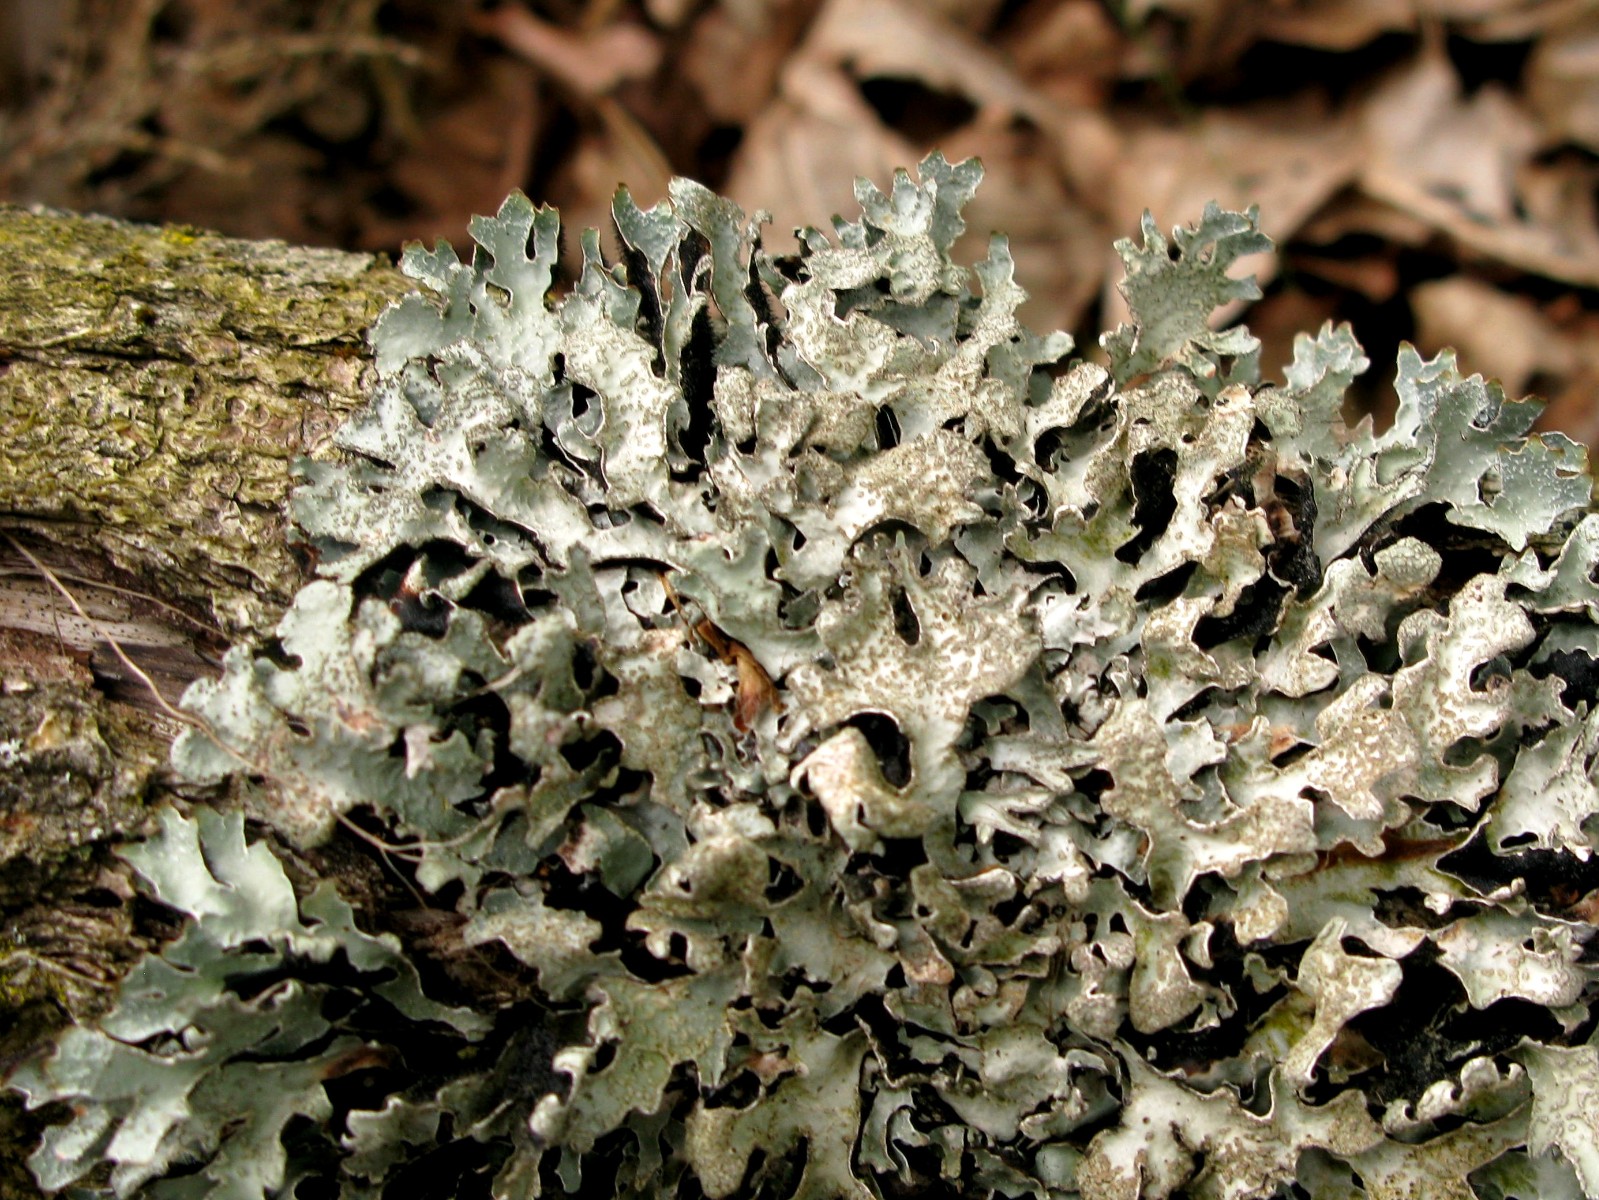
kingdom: Fungi
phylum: Ascomycota
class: Lecanoromycetes
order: Lecanorales
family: Parmeliaceae
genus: Parmelia
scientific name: Parmelia sulcata
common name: rynket skållav
